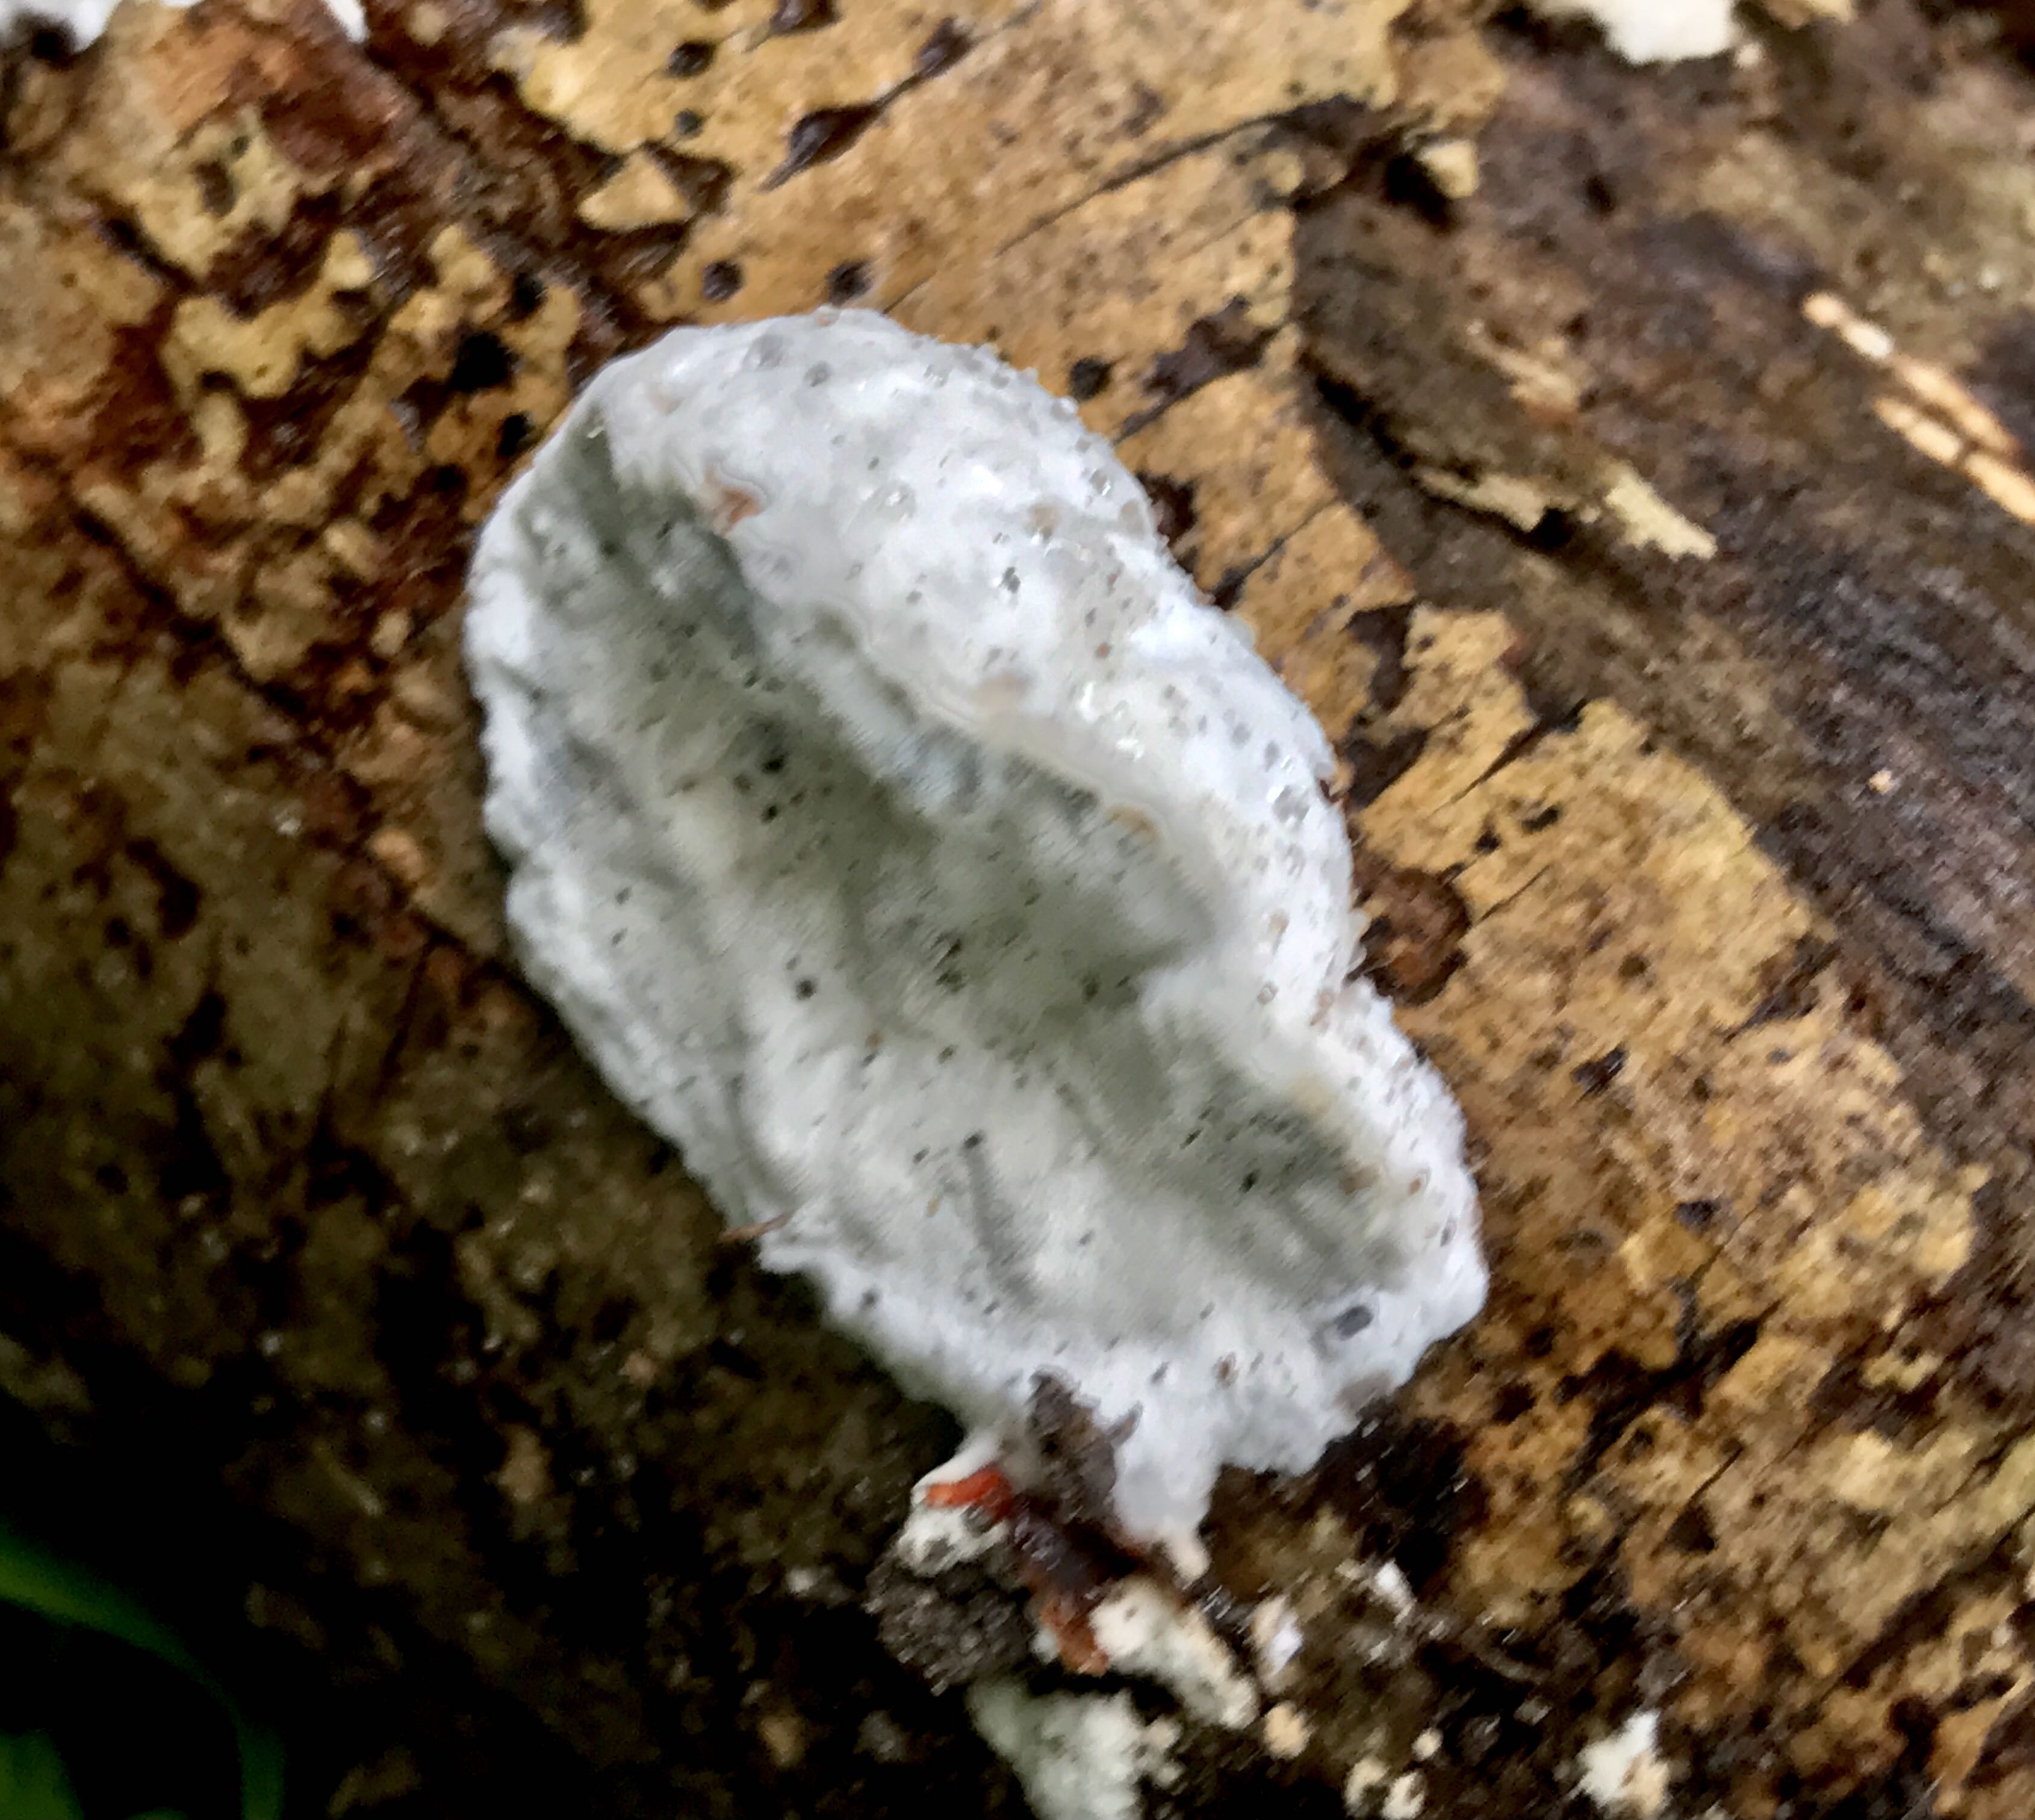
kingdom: Fungi
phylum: Basidiomycota
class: Agaricomycetes
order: Polyporales
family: Incrustoporiaceae
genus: Skeletocutis
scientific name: Skeletocutis nemoralis
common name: stor krystalporesvamp
